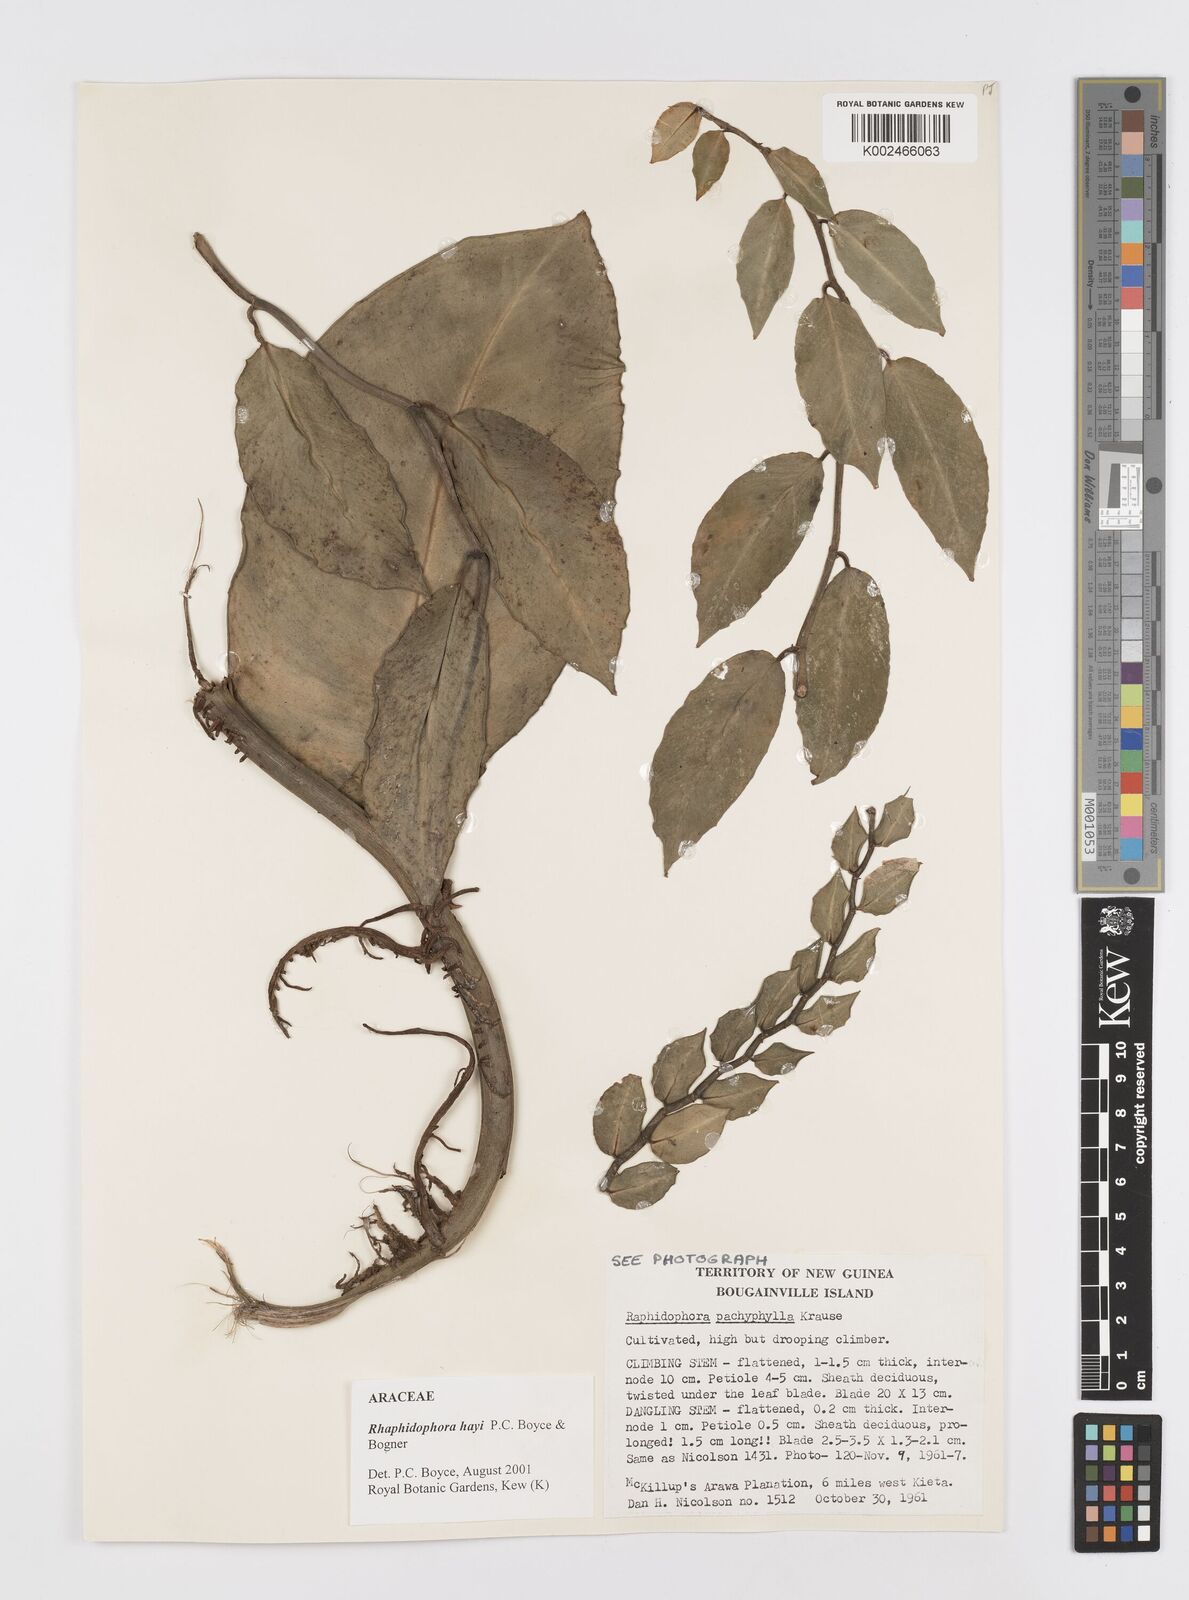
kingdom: Plantae
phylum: Tracheophyta
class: Liliopsida
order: Alismatales
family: Araceae
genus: Rhaphidophora
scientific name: Rhaphidophora hayi
